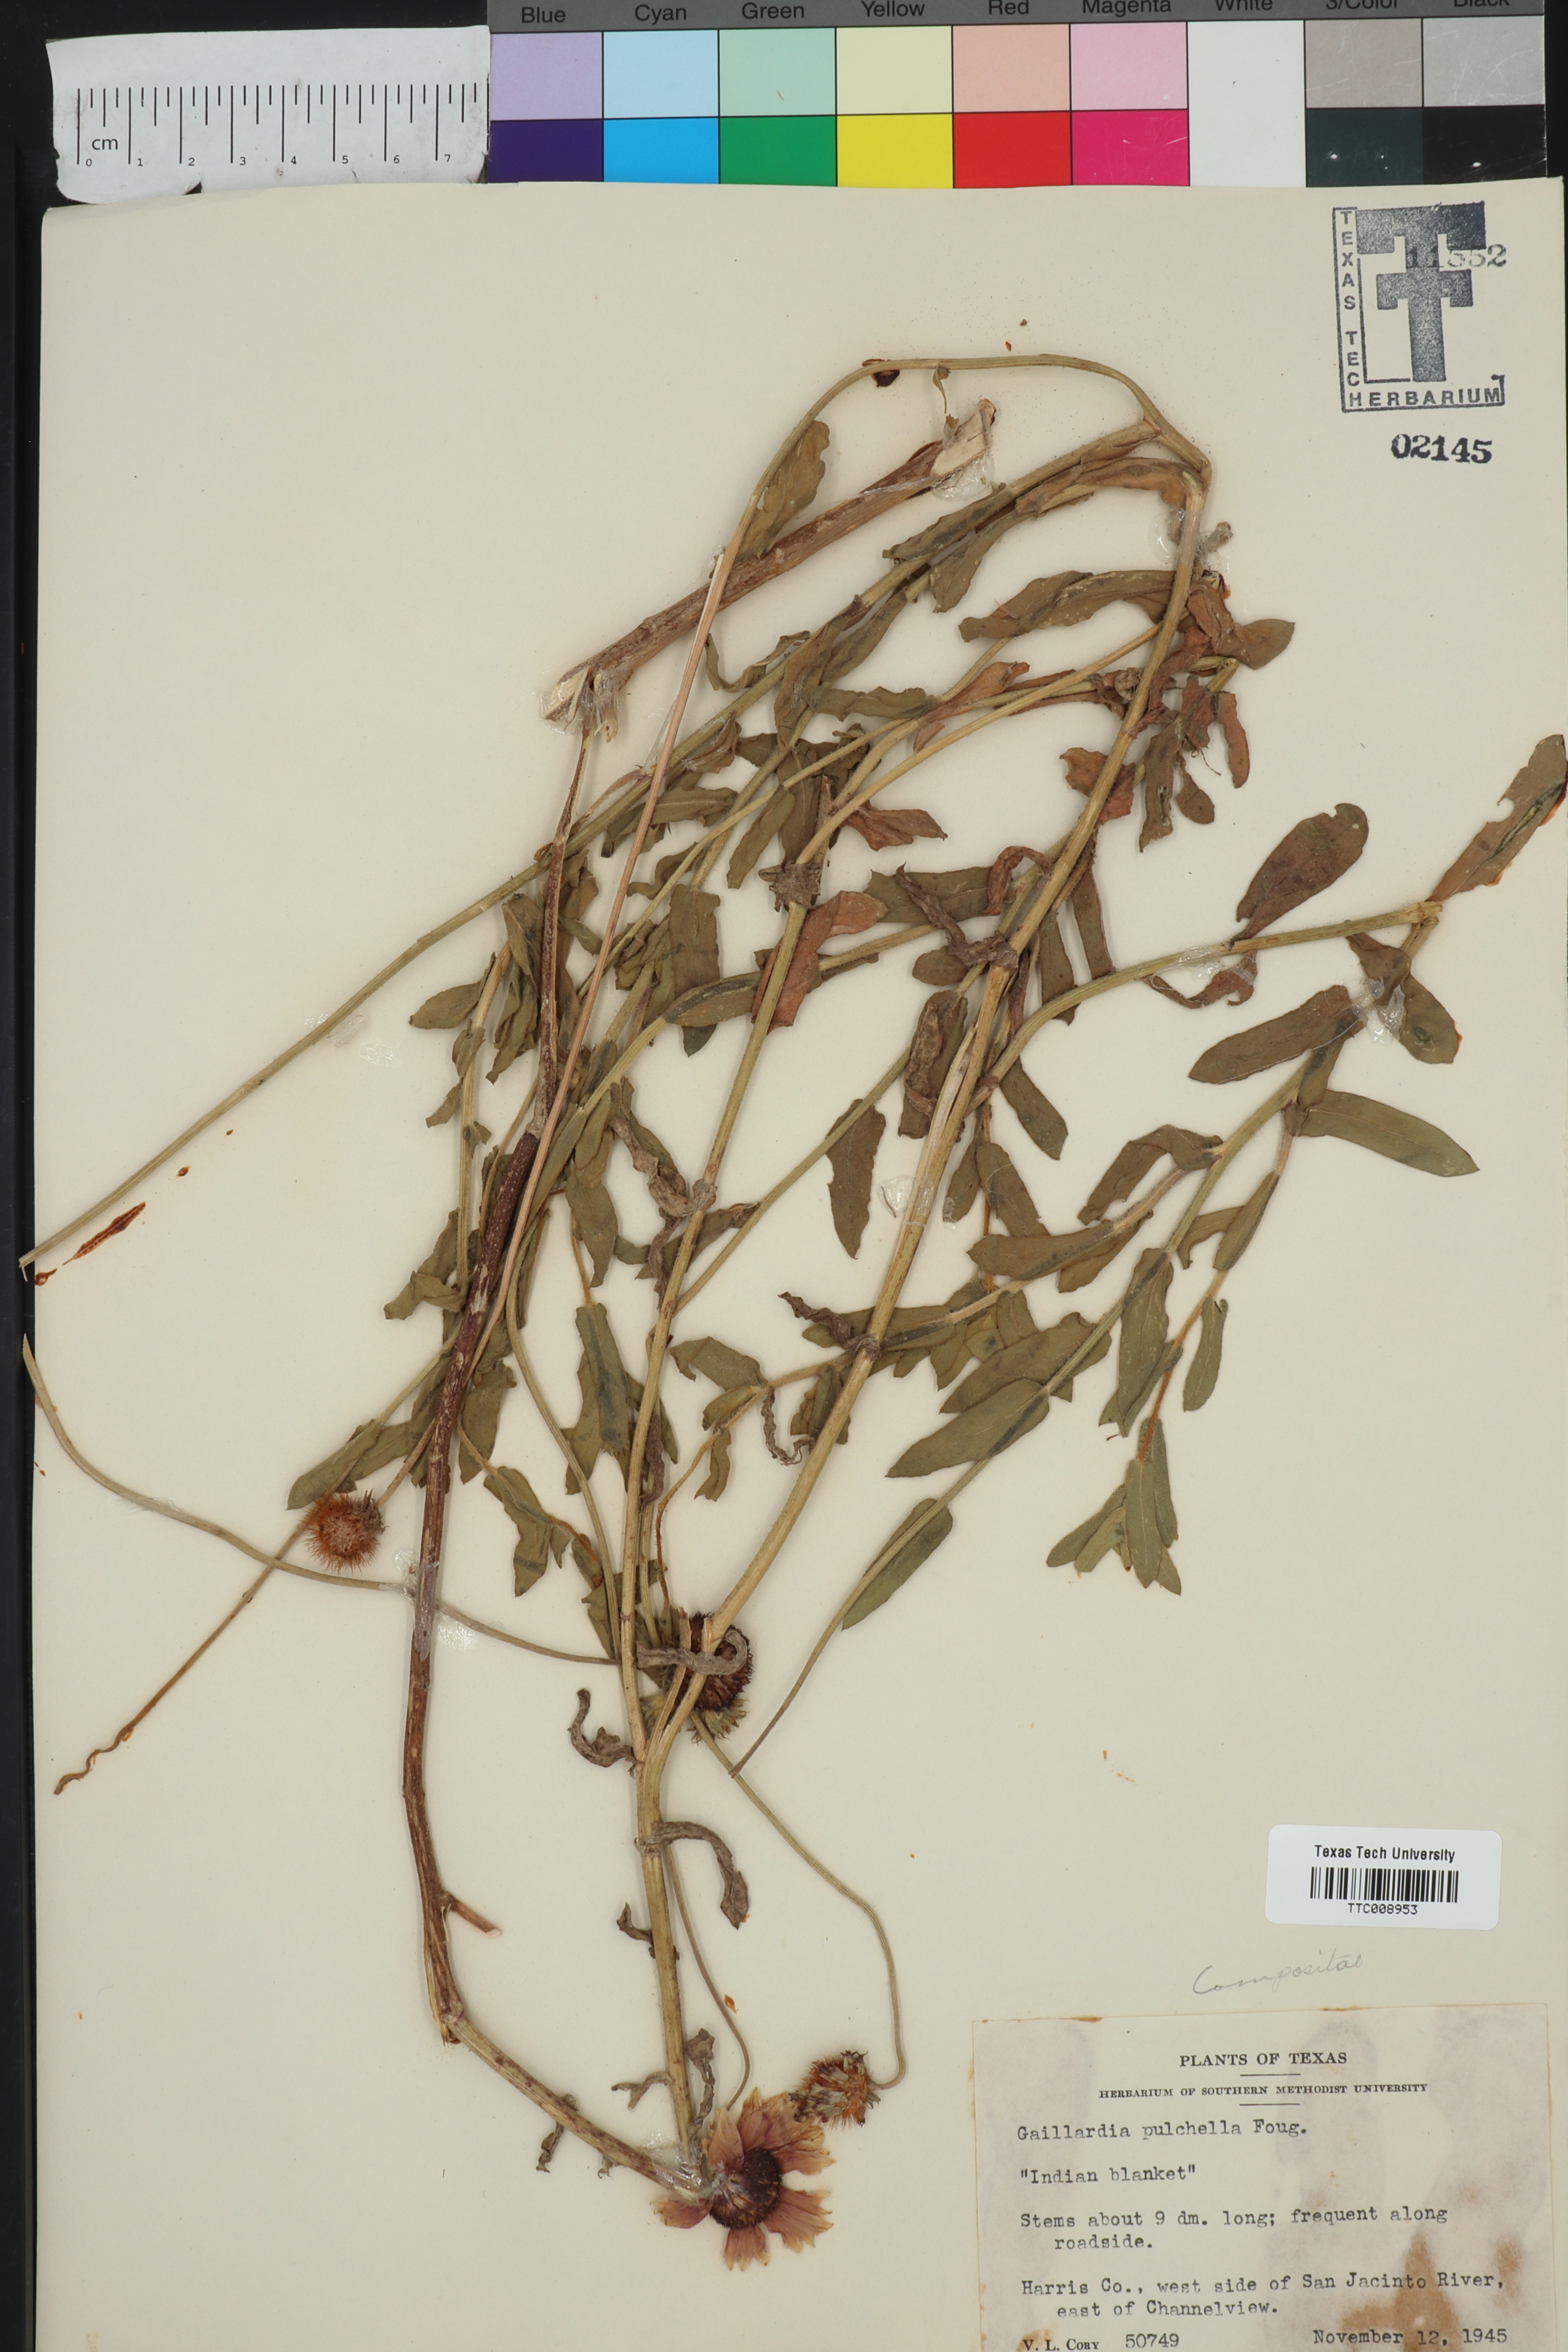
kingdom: Plantae
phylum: Tracheophyta
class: Magnoliopsida
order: Asterales
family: Asteraceae
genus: Gaillardia
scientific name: Gaillardia pulchella
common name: Firewheel
